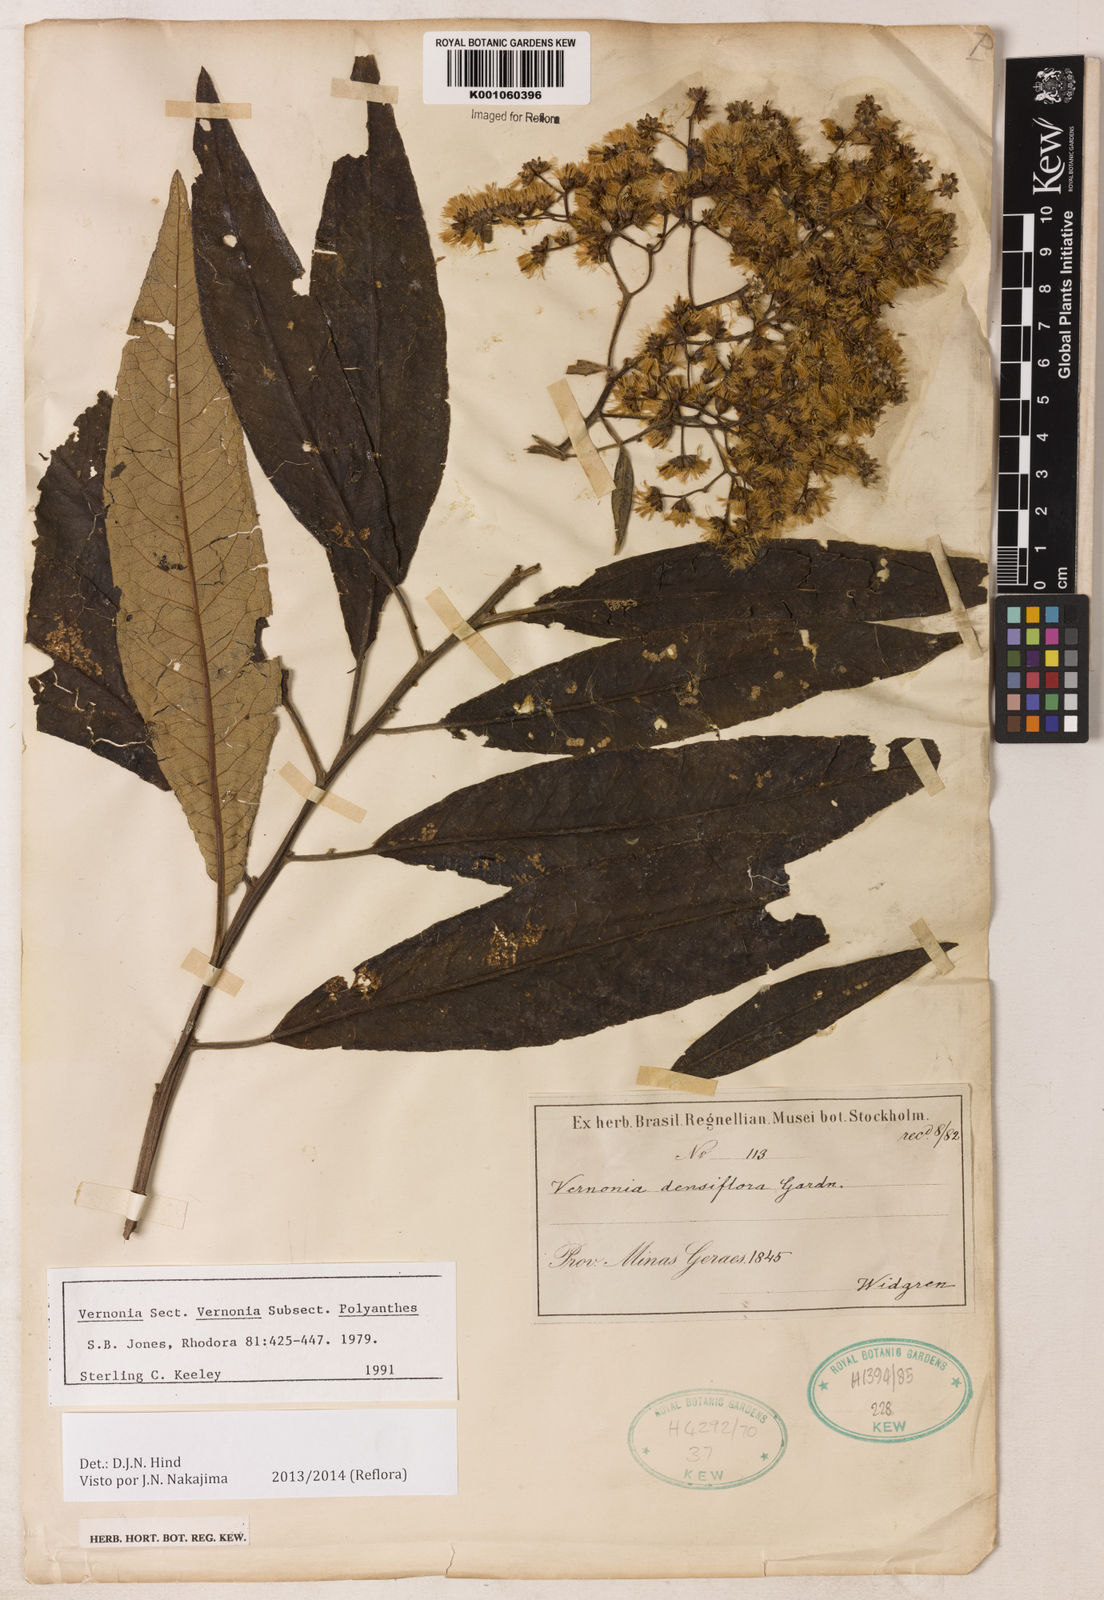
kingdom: Plantae
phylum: Tracheophyta
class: Magnoliopsida
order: Asterales
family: Asteraceae
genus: Vernonanthura
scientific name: Vernonanthura densiflora
